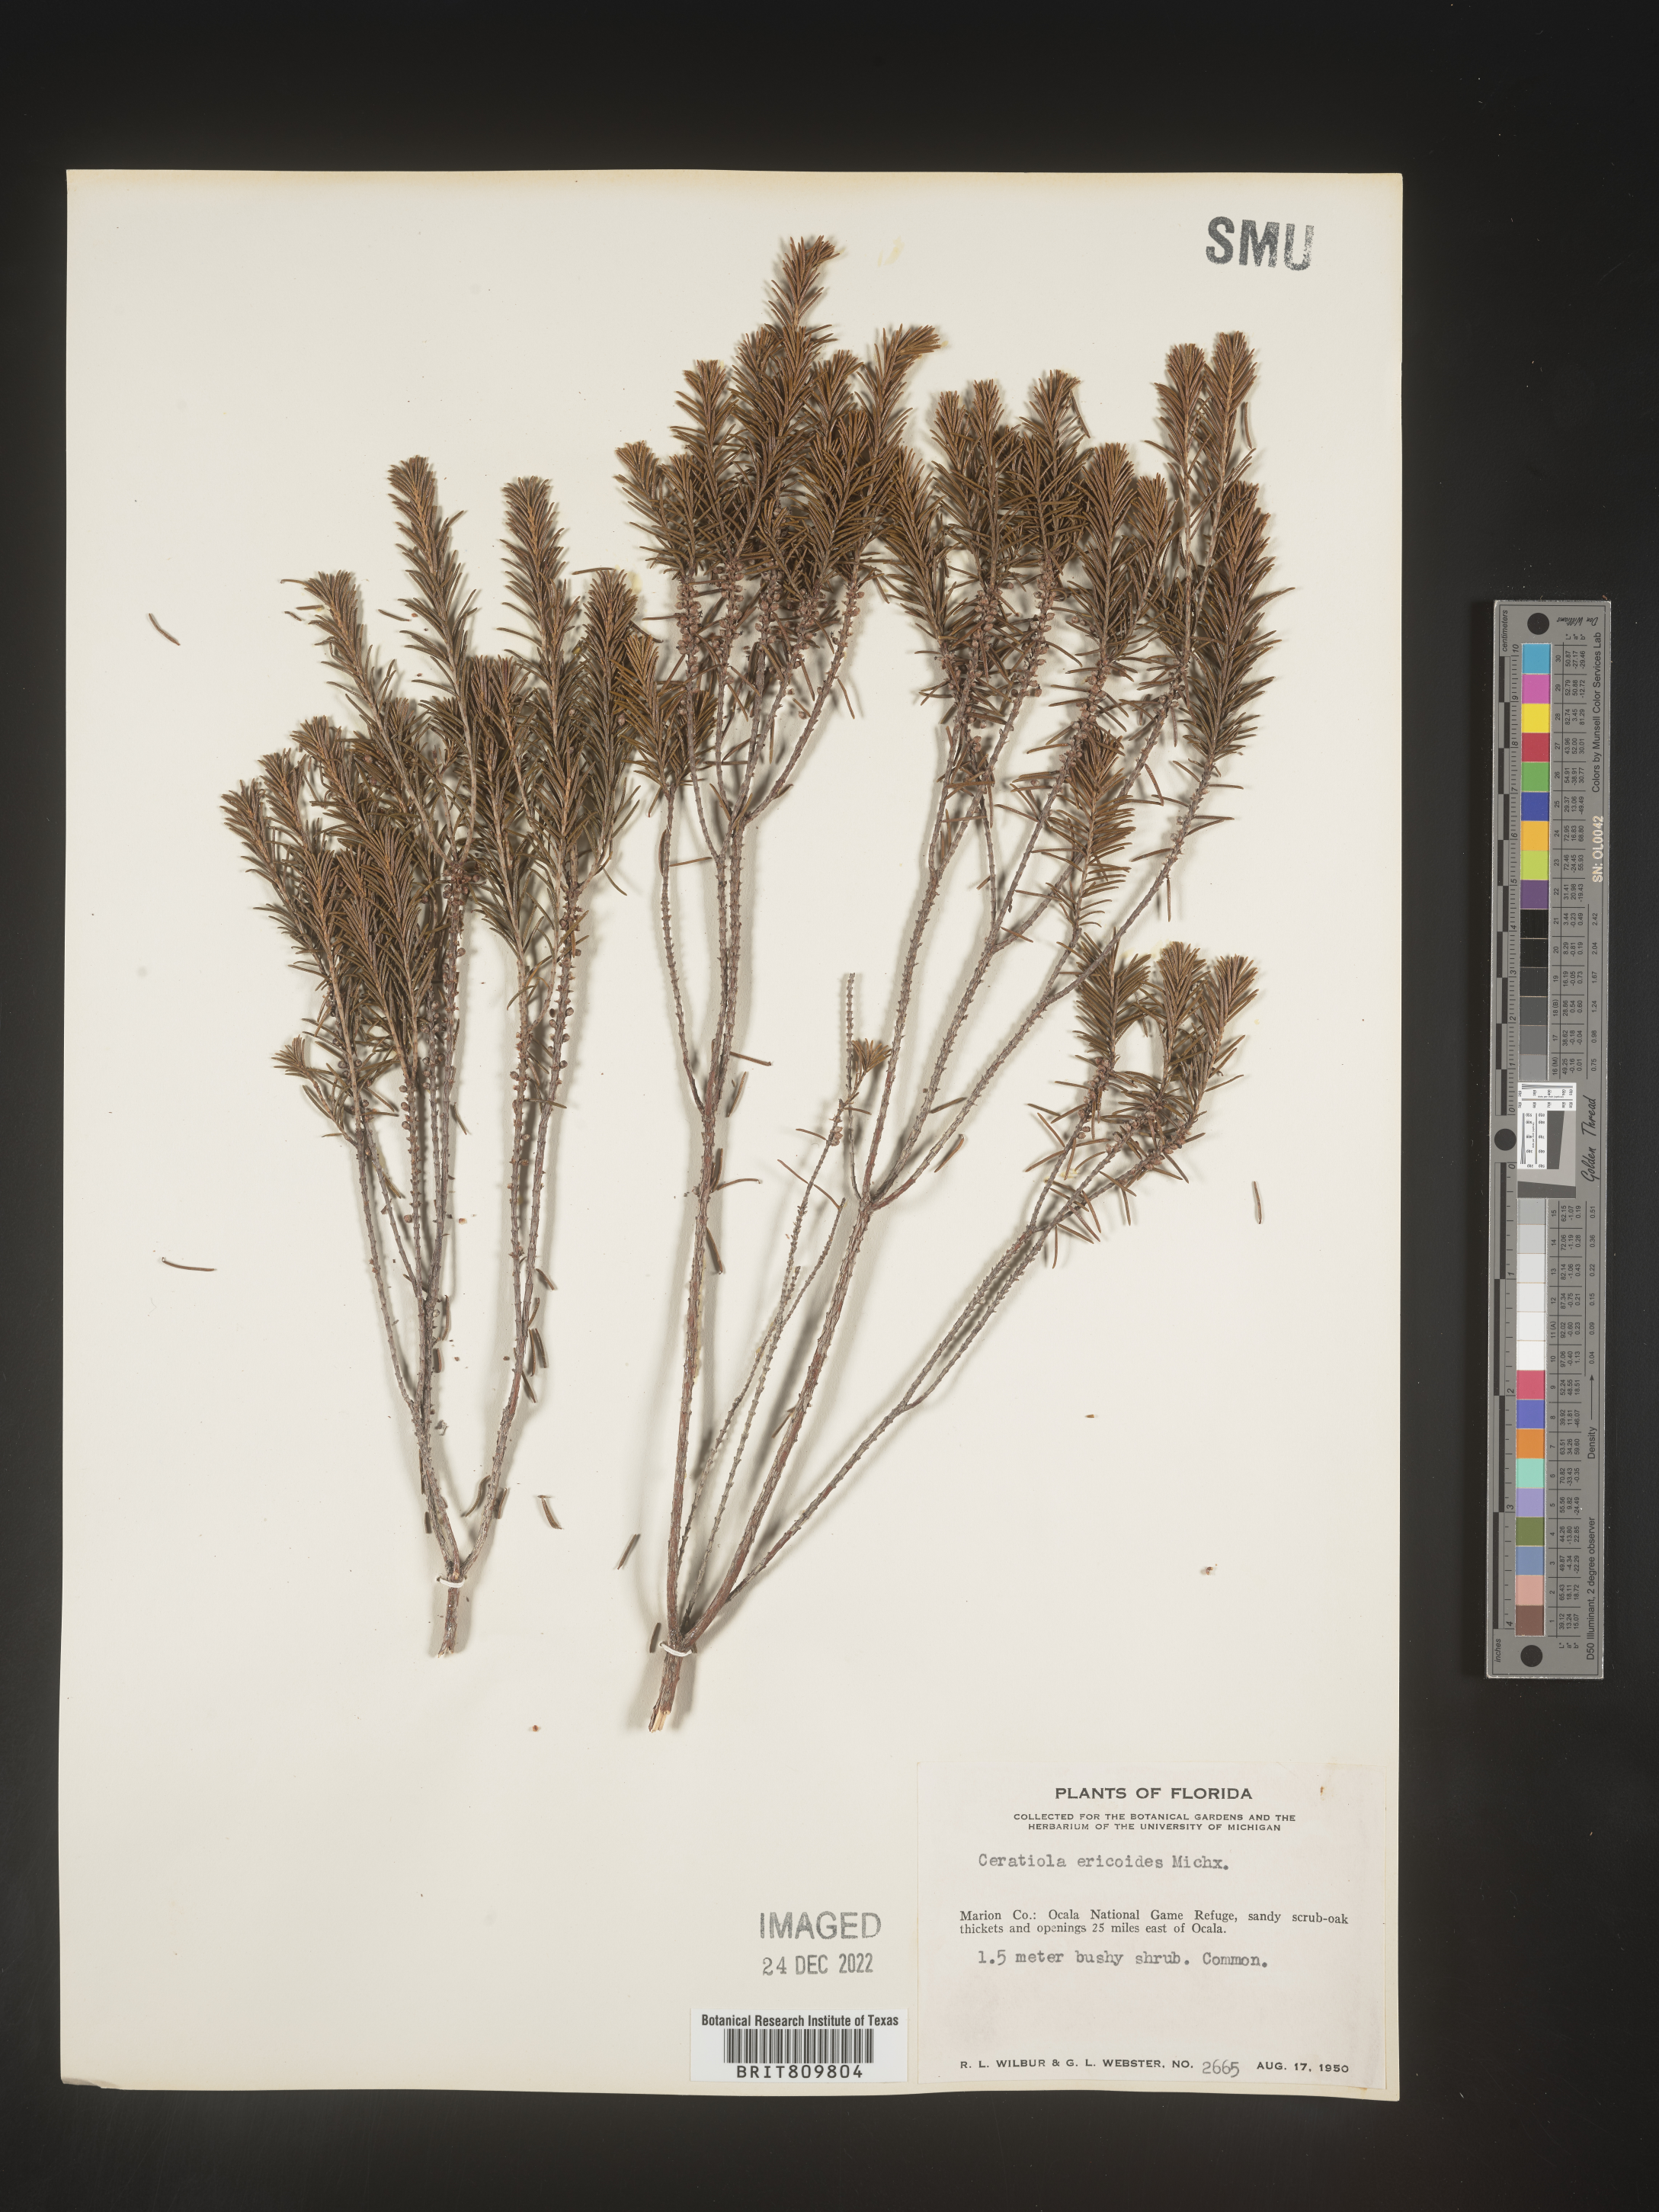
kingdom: Plantae
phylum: Tracheophyta
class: Magnoliopsida
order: Ericales
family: Ericaceae
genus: Ceratiola
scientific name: Ceratiola ericoides
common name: Sandhill-rosemary
